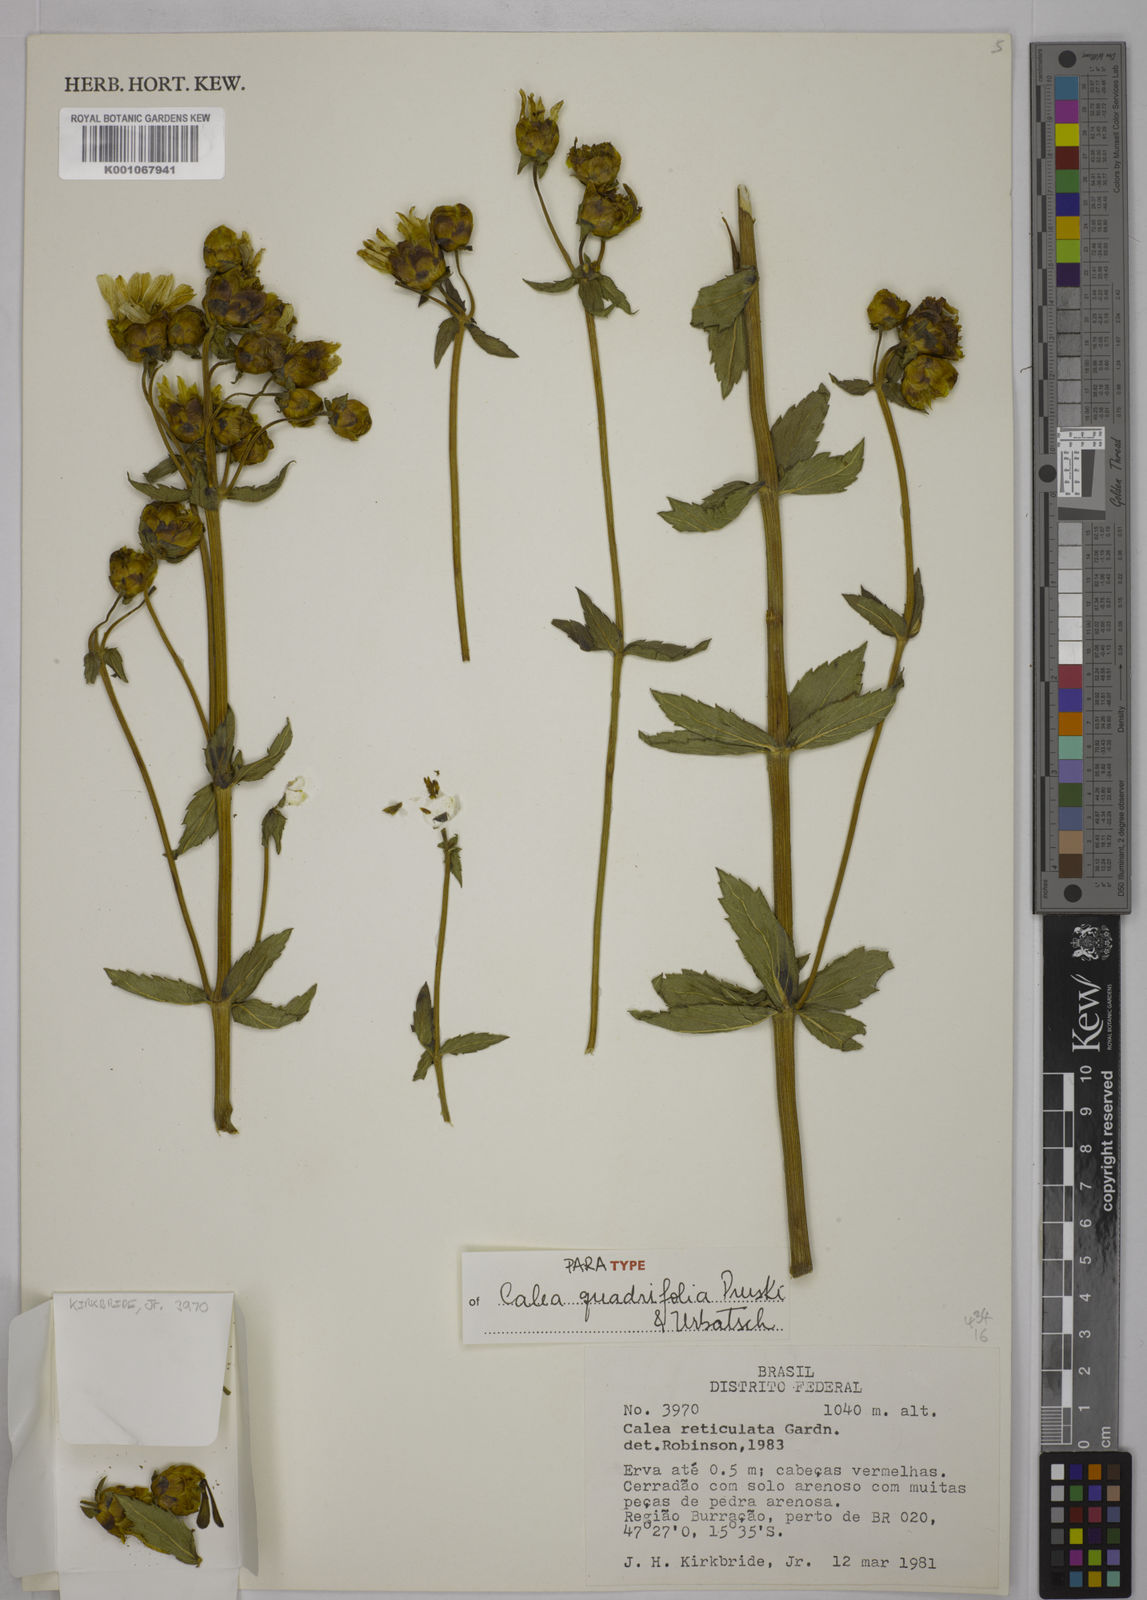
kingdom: Plantae
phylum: Tracheophyta
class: Magnoliopsida
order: Asterales
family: Asteraceae
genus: Calea
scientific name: Calea quadrifolia
